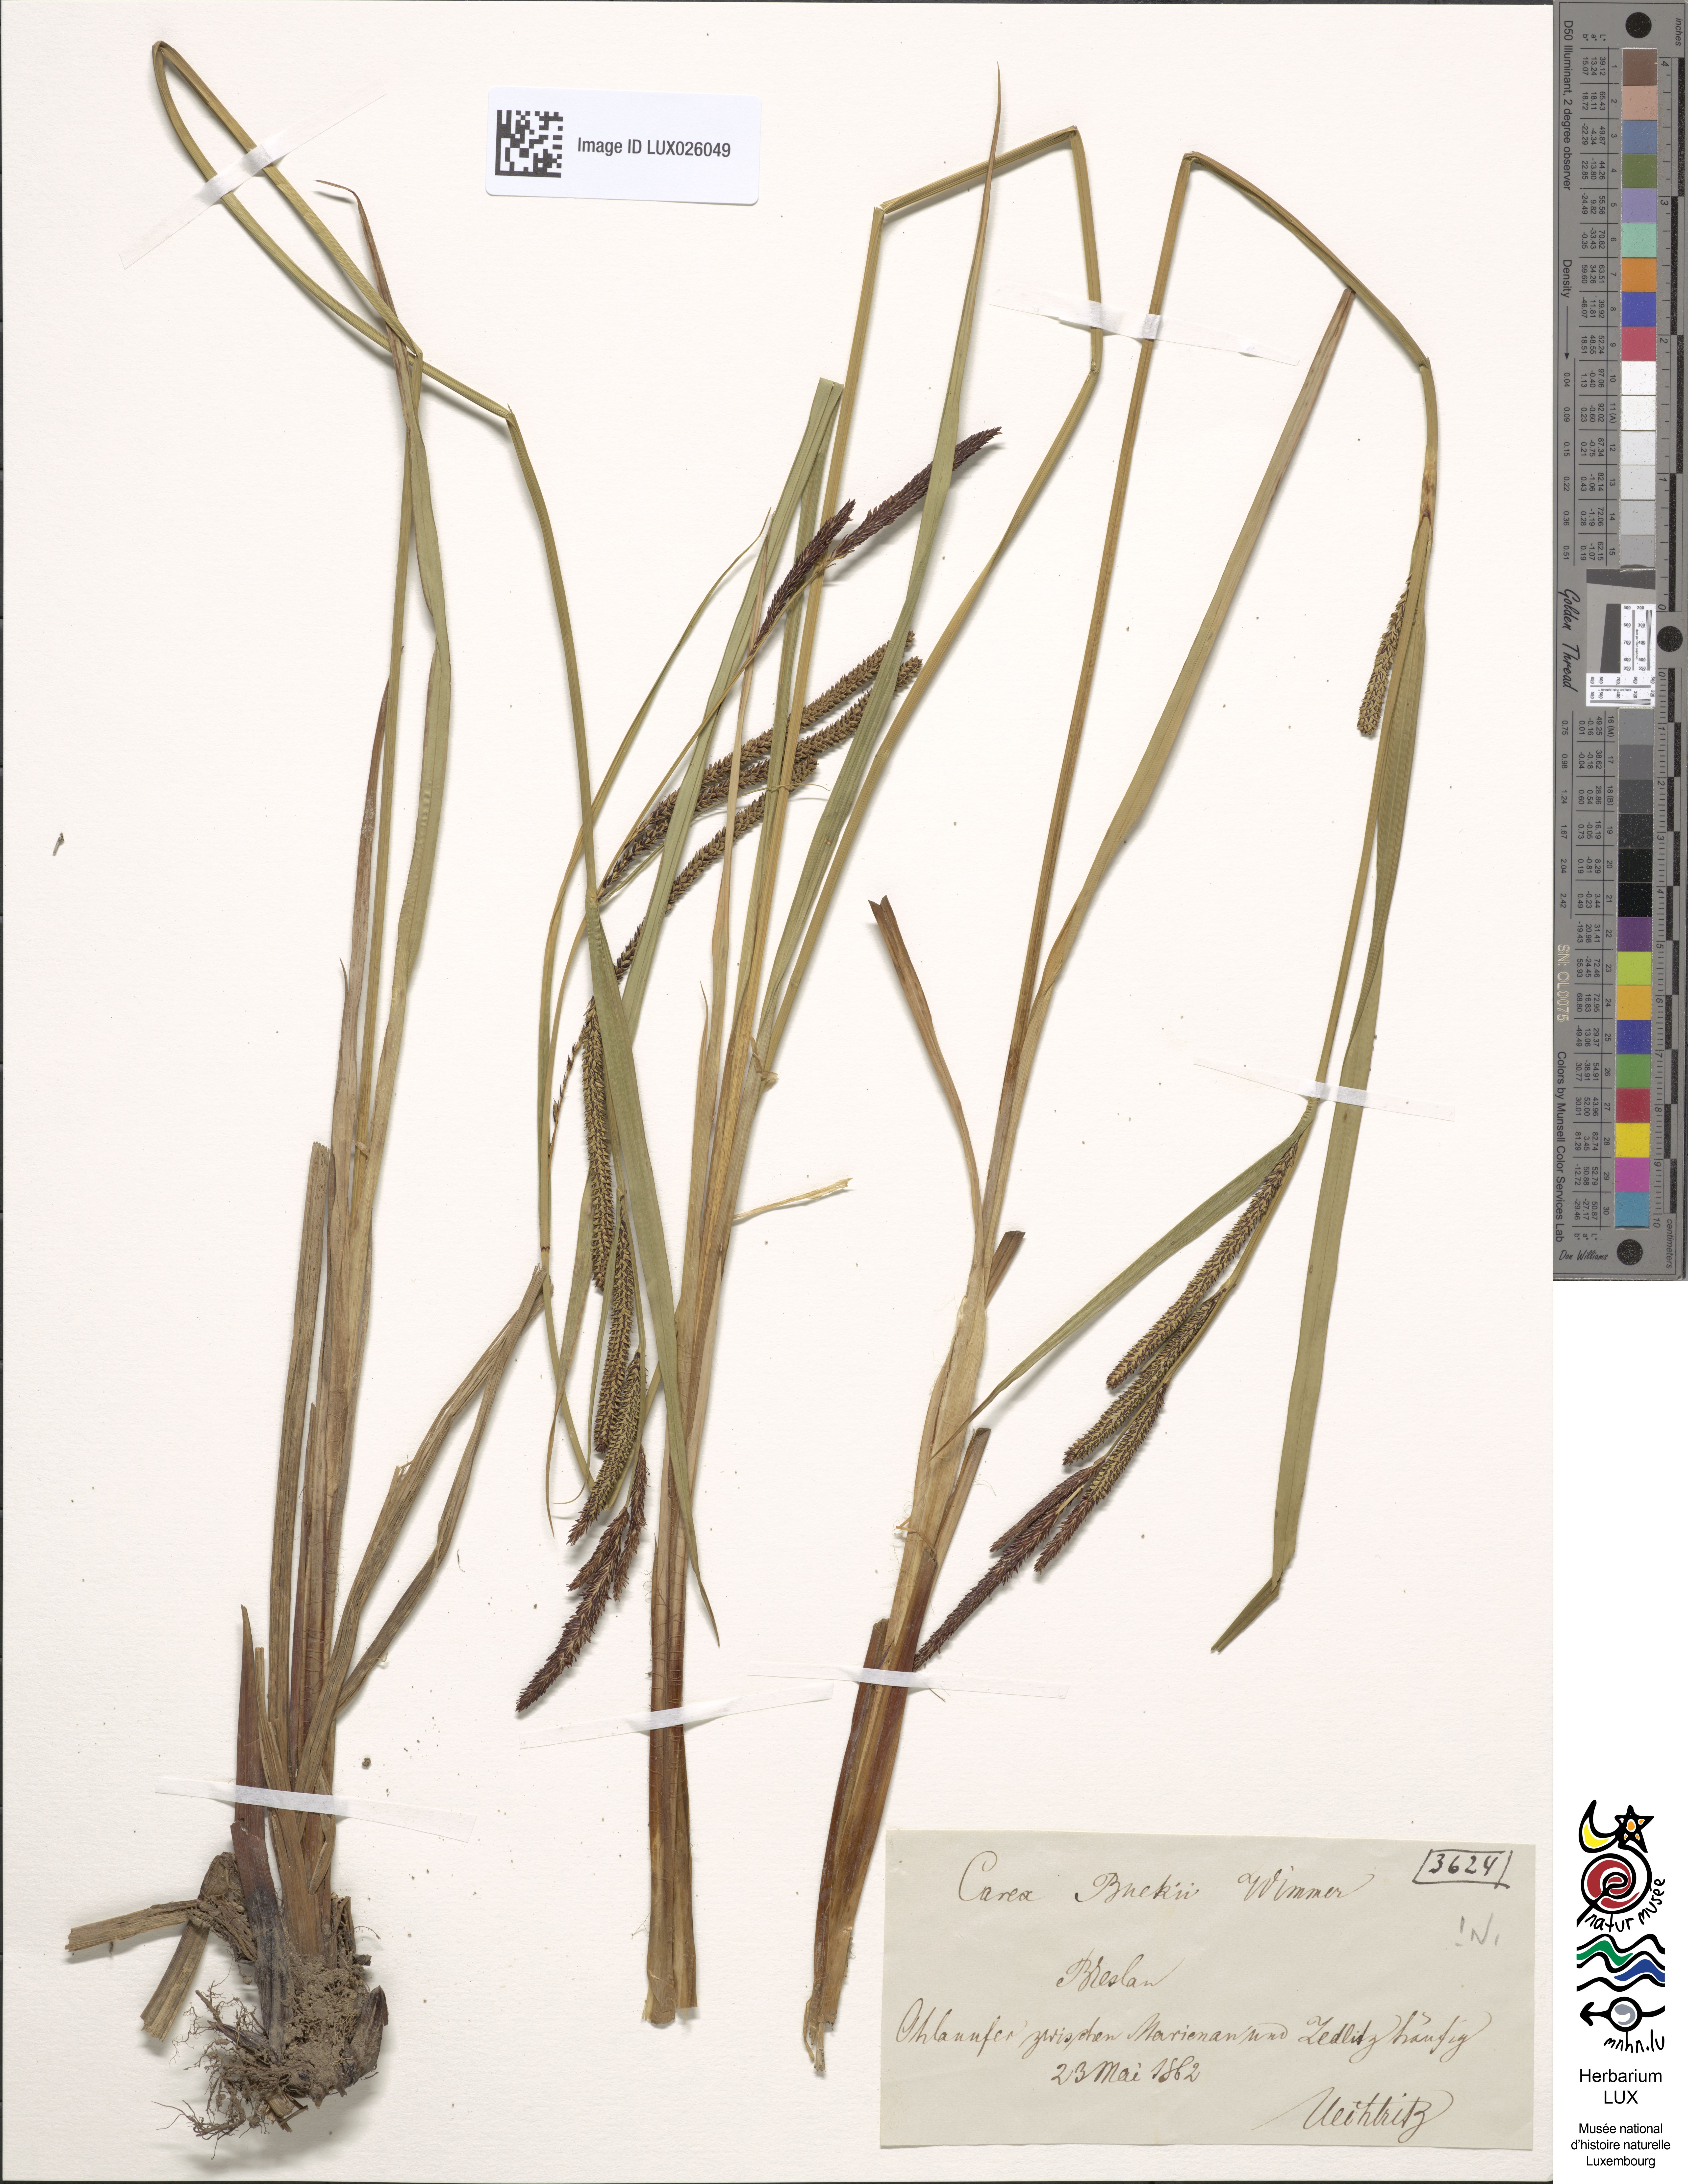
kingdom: Plantae
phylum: Tracheophyta
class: Liliopsida
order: Poales
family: Cyperaceae
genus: Carex
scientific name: Carex buekii
